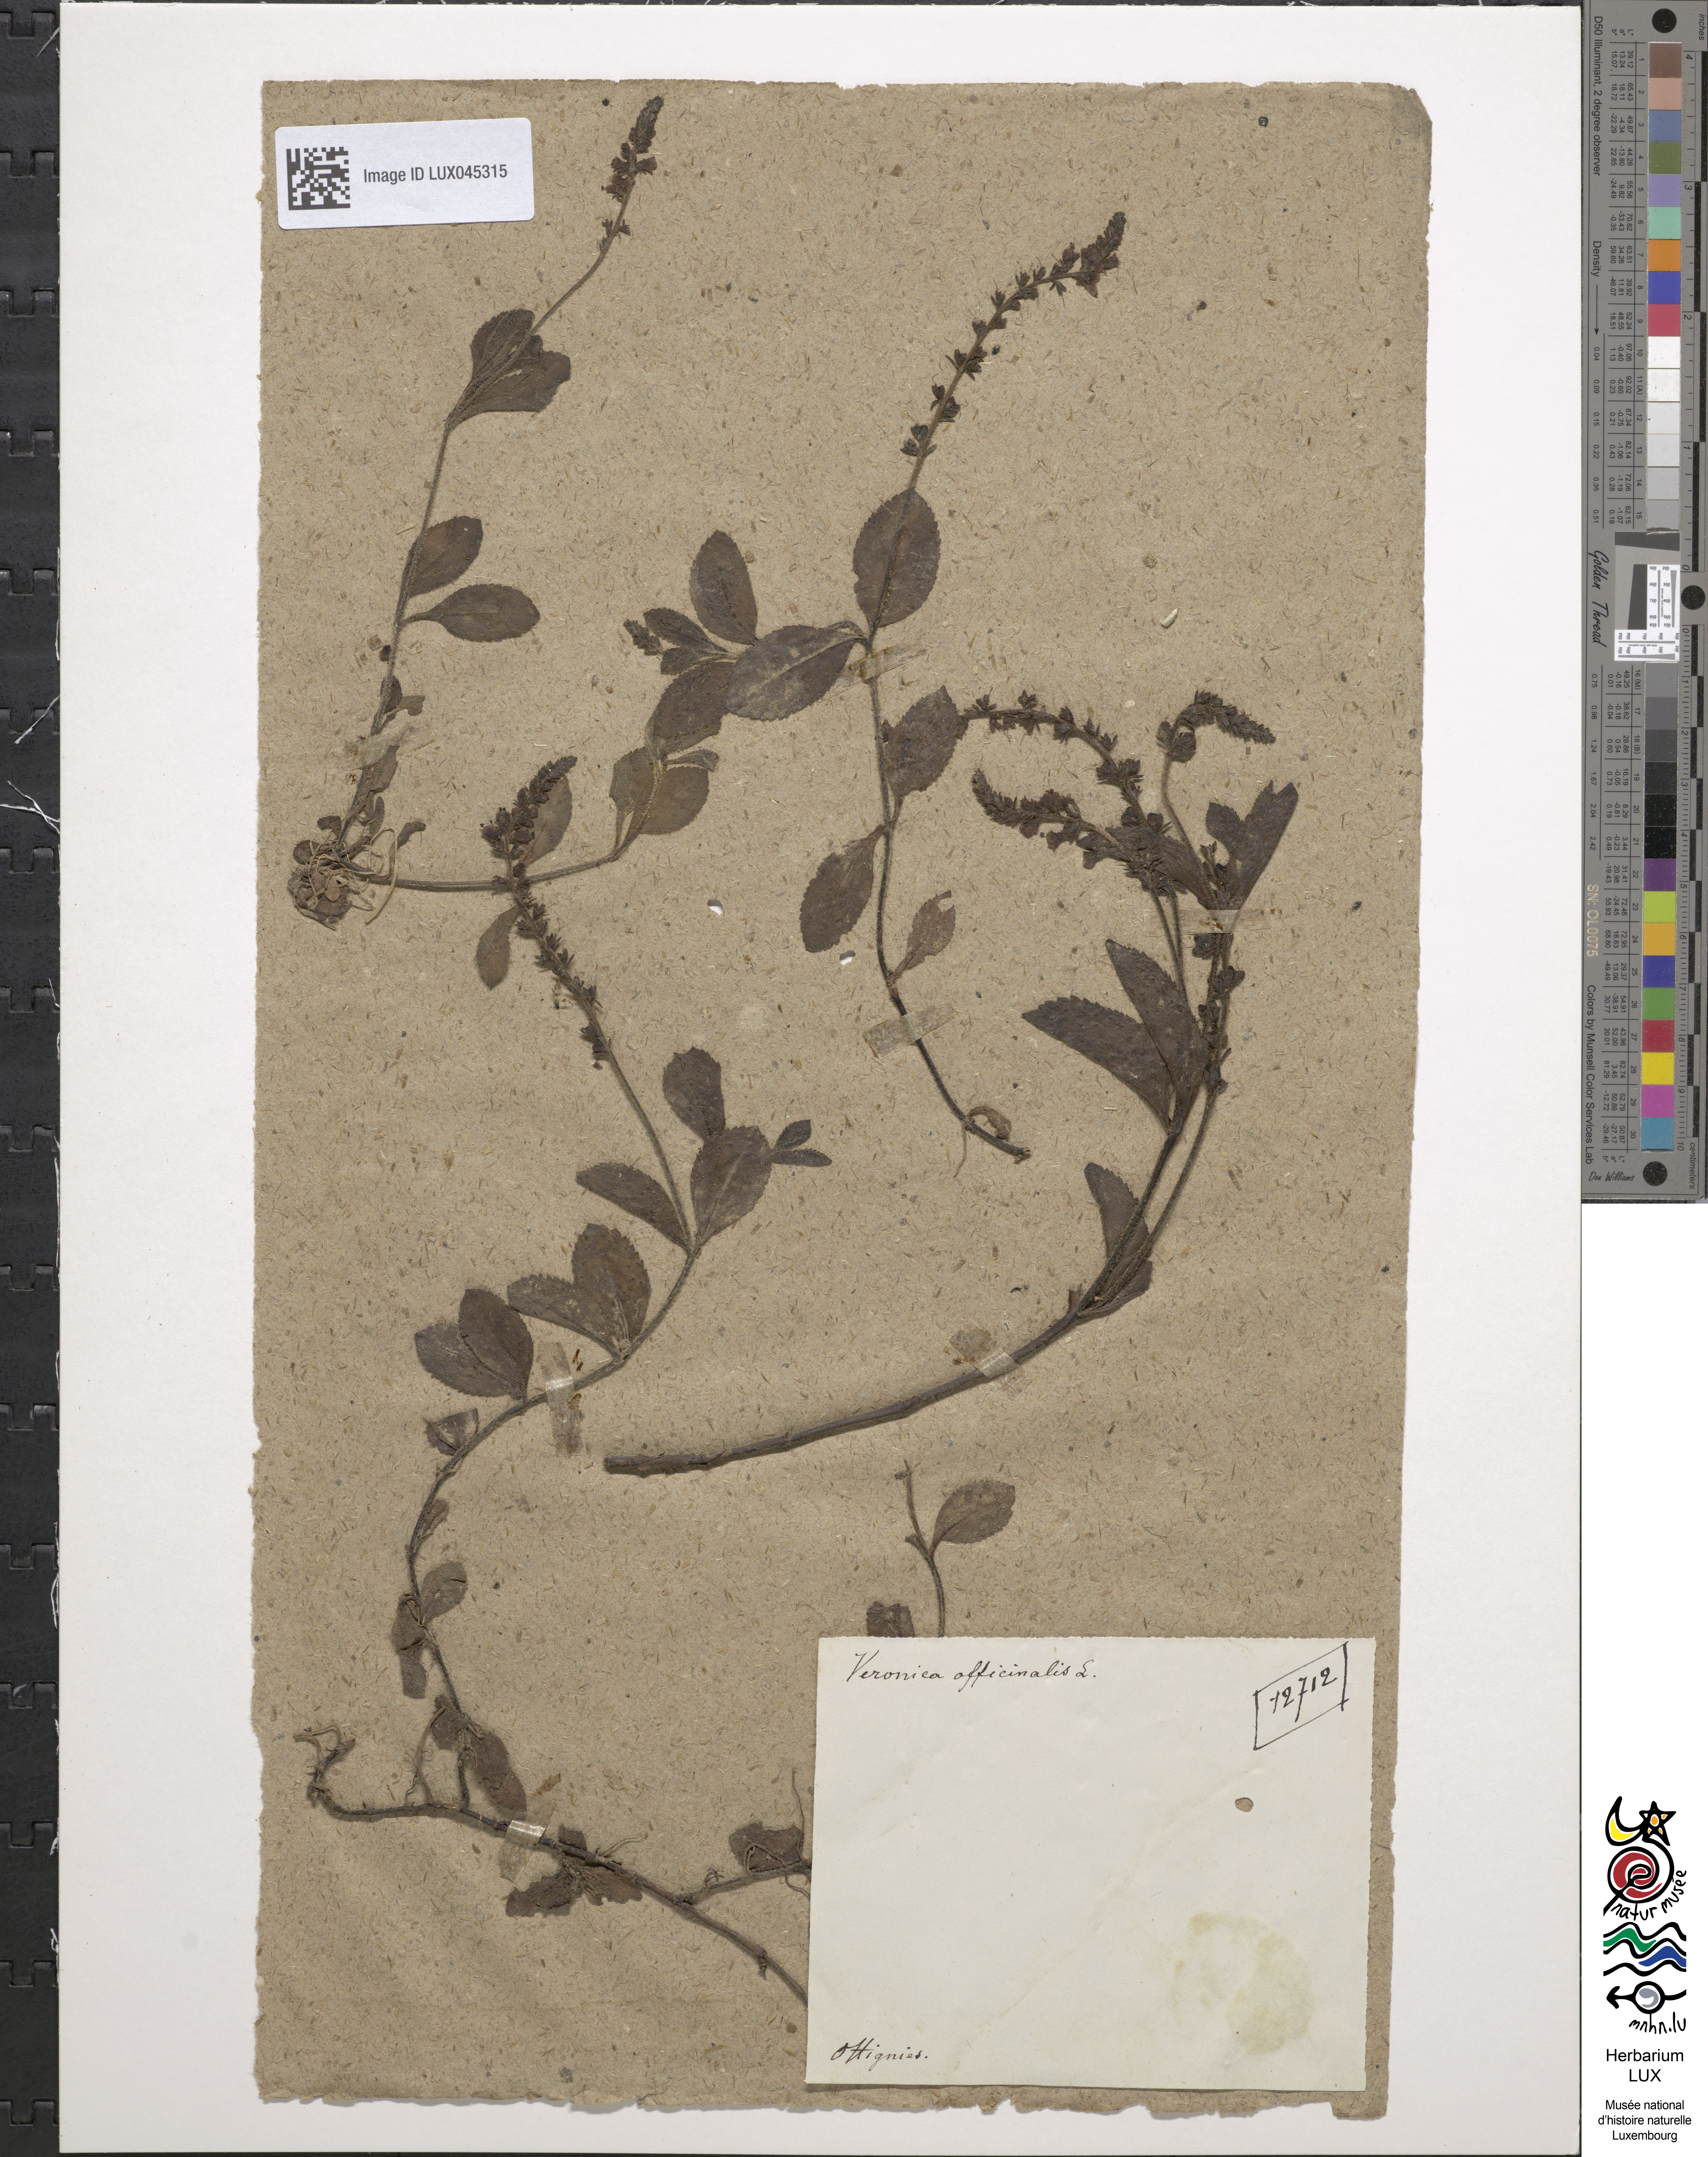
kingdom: Plantae
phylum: Tracheophyta
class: Magnoliopsida
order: Lamiales
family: Plantaginaceae
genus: Veronica
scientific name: Veronica officinalis
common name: Common speedwell
